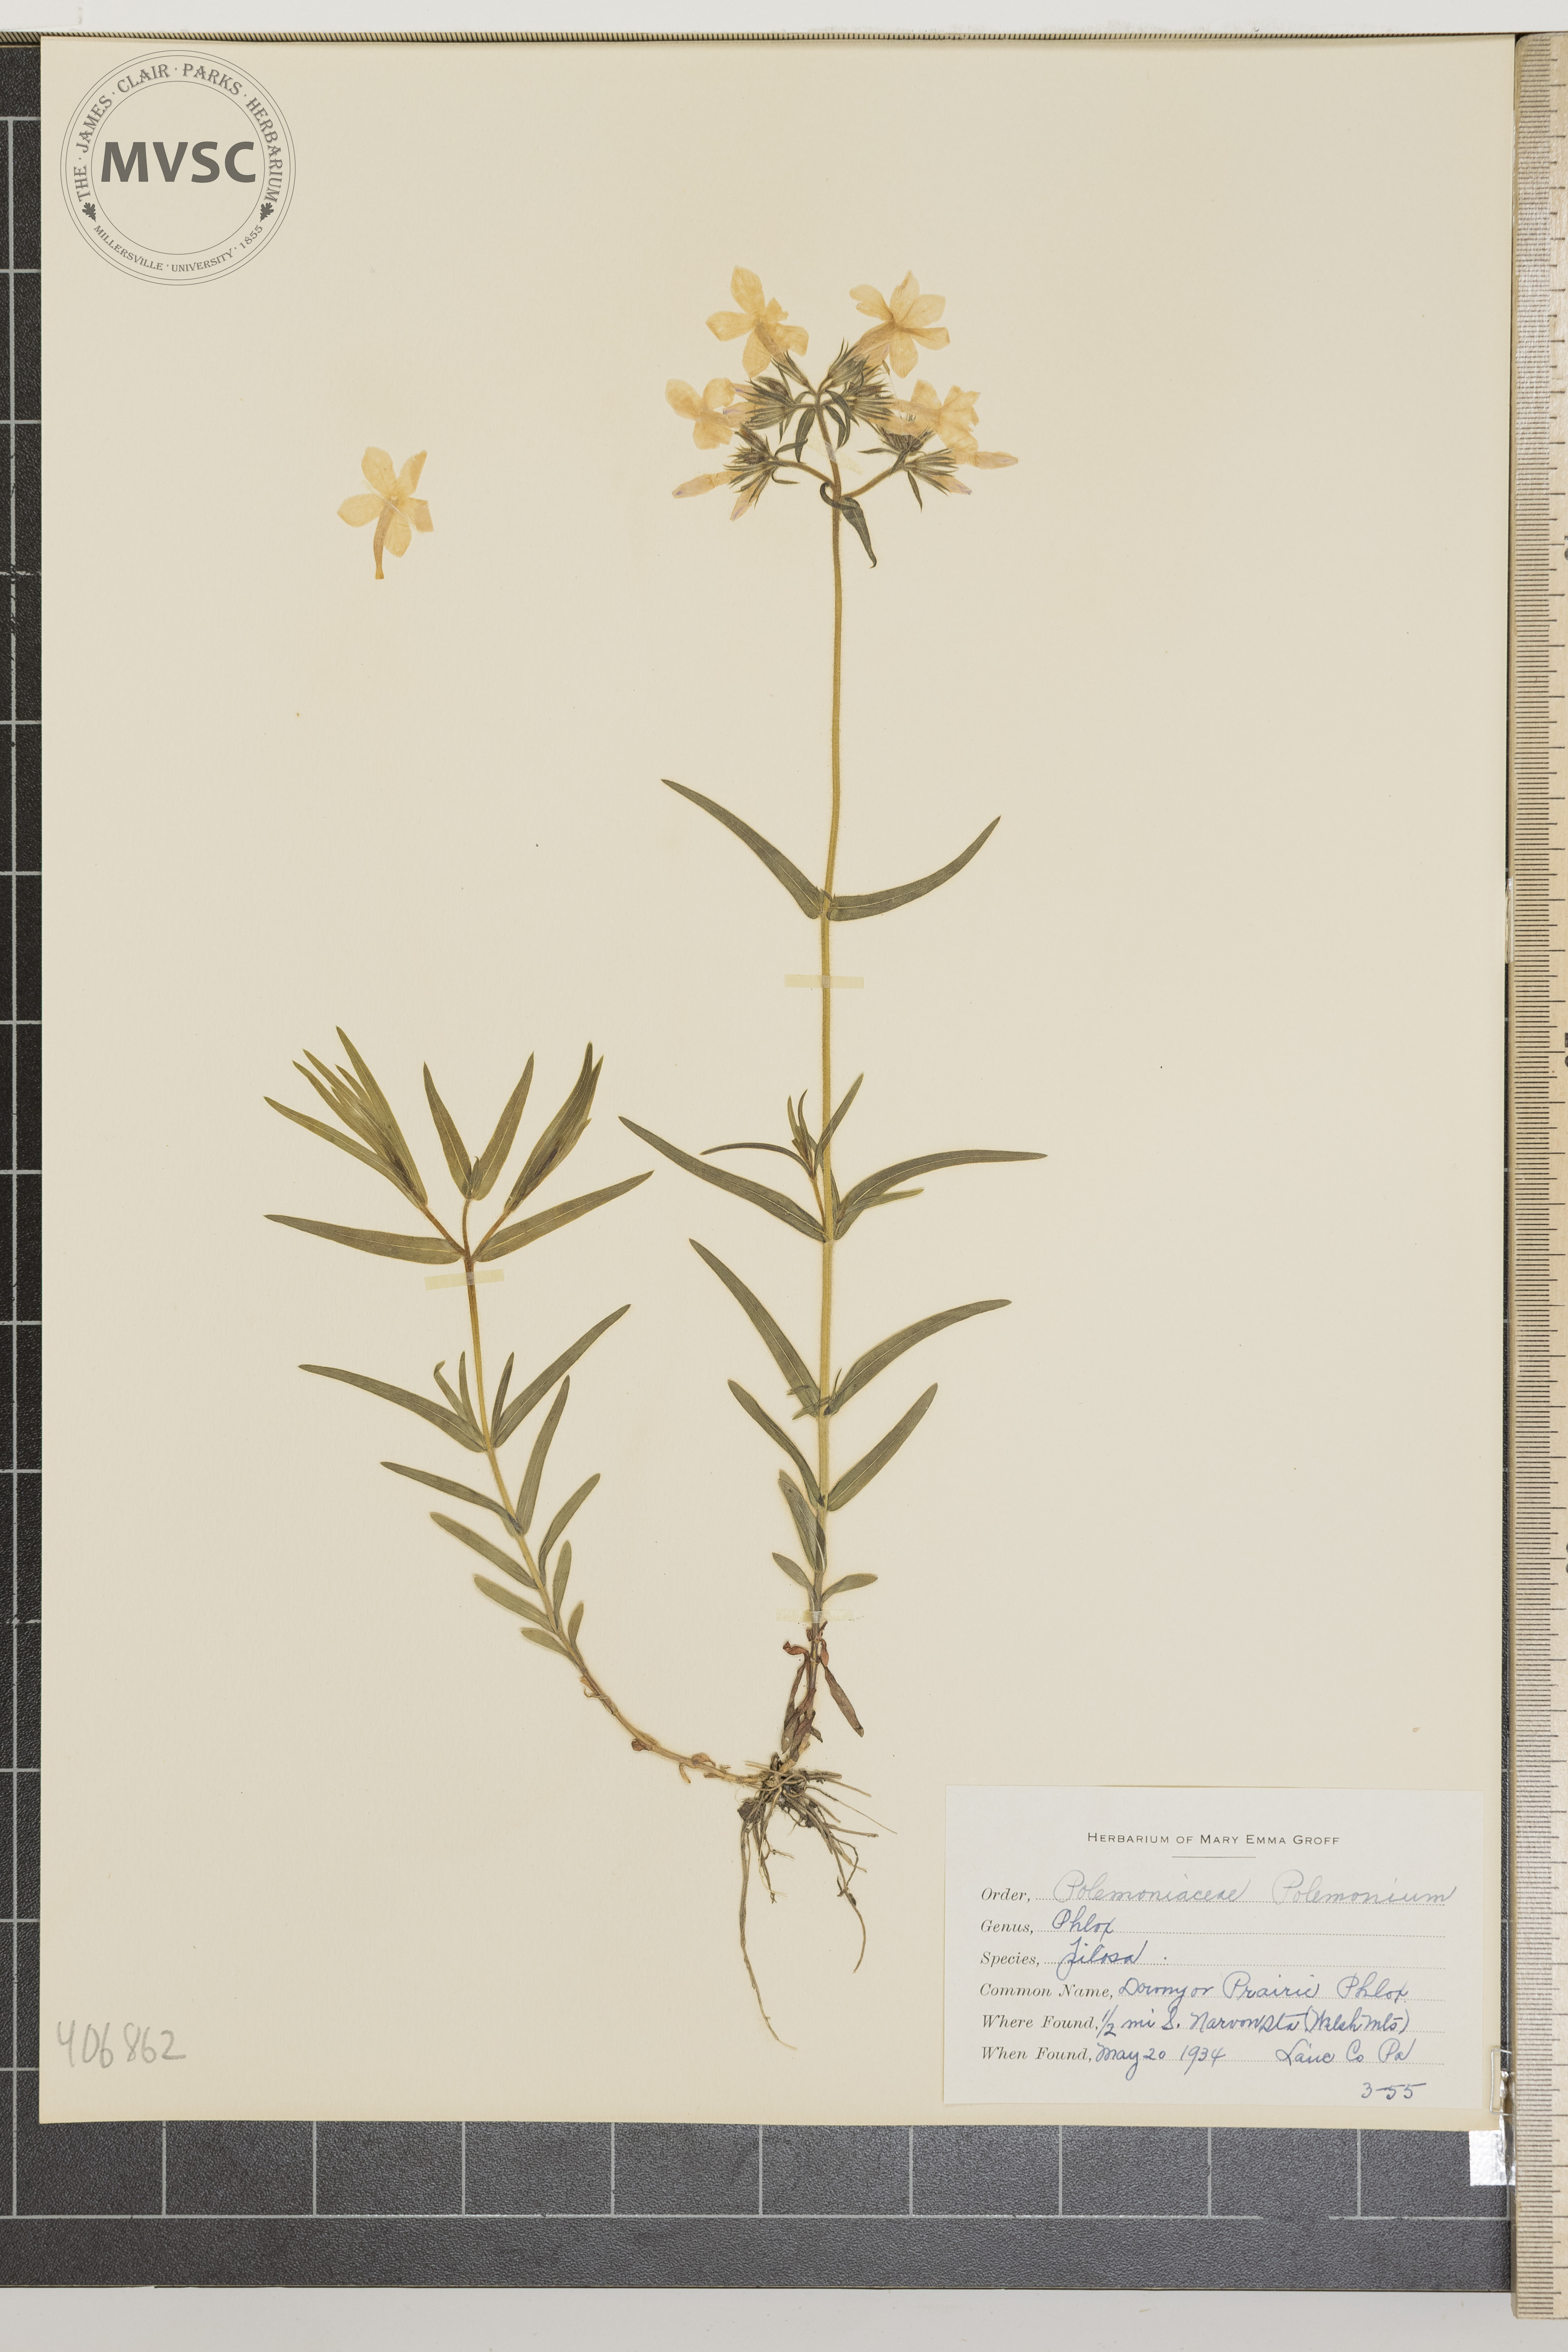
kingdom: Plantae
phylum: Tracheophyta
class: Magnoliopsida
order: Ericales
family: Polemoniaceae
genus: Phlox
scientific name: Phlox pilosa
